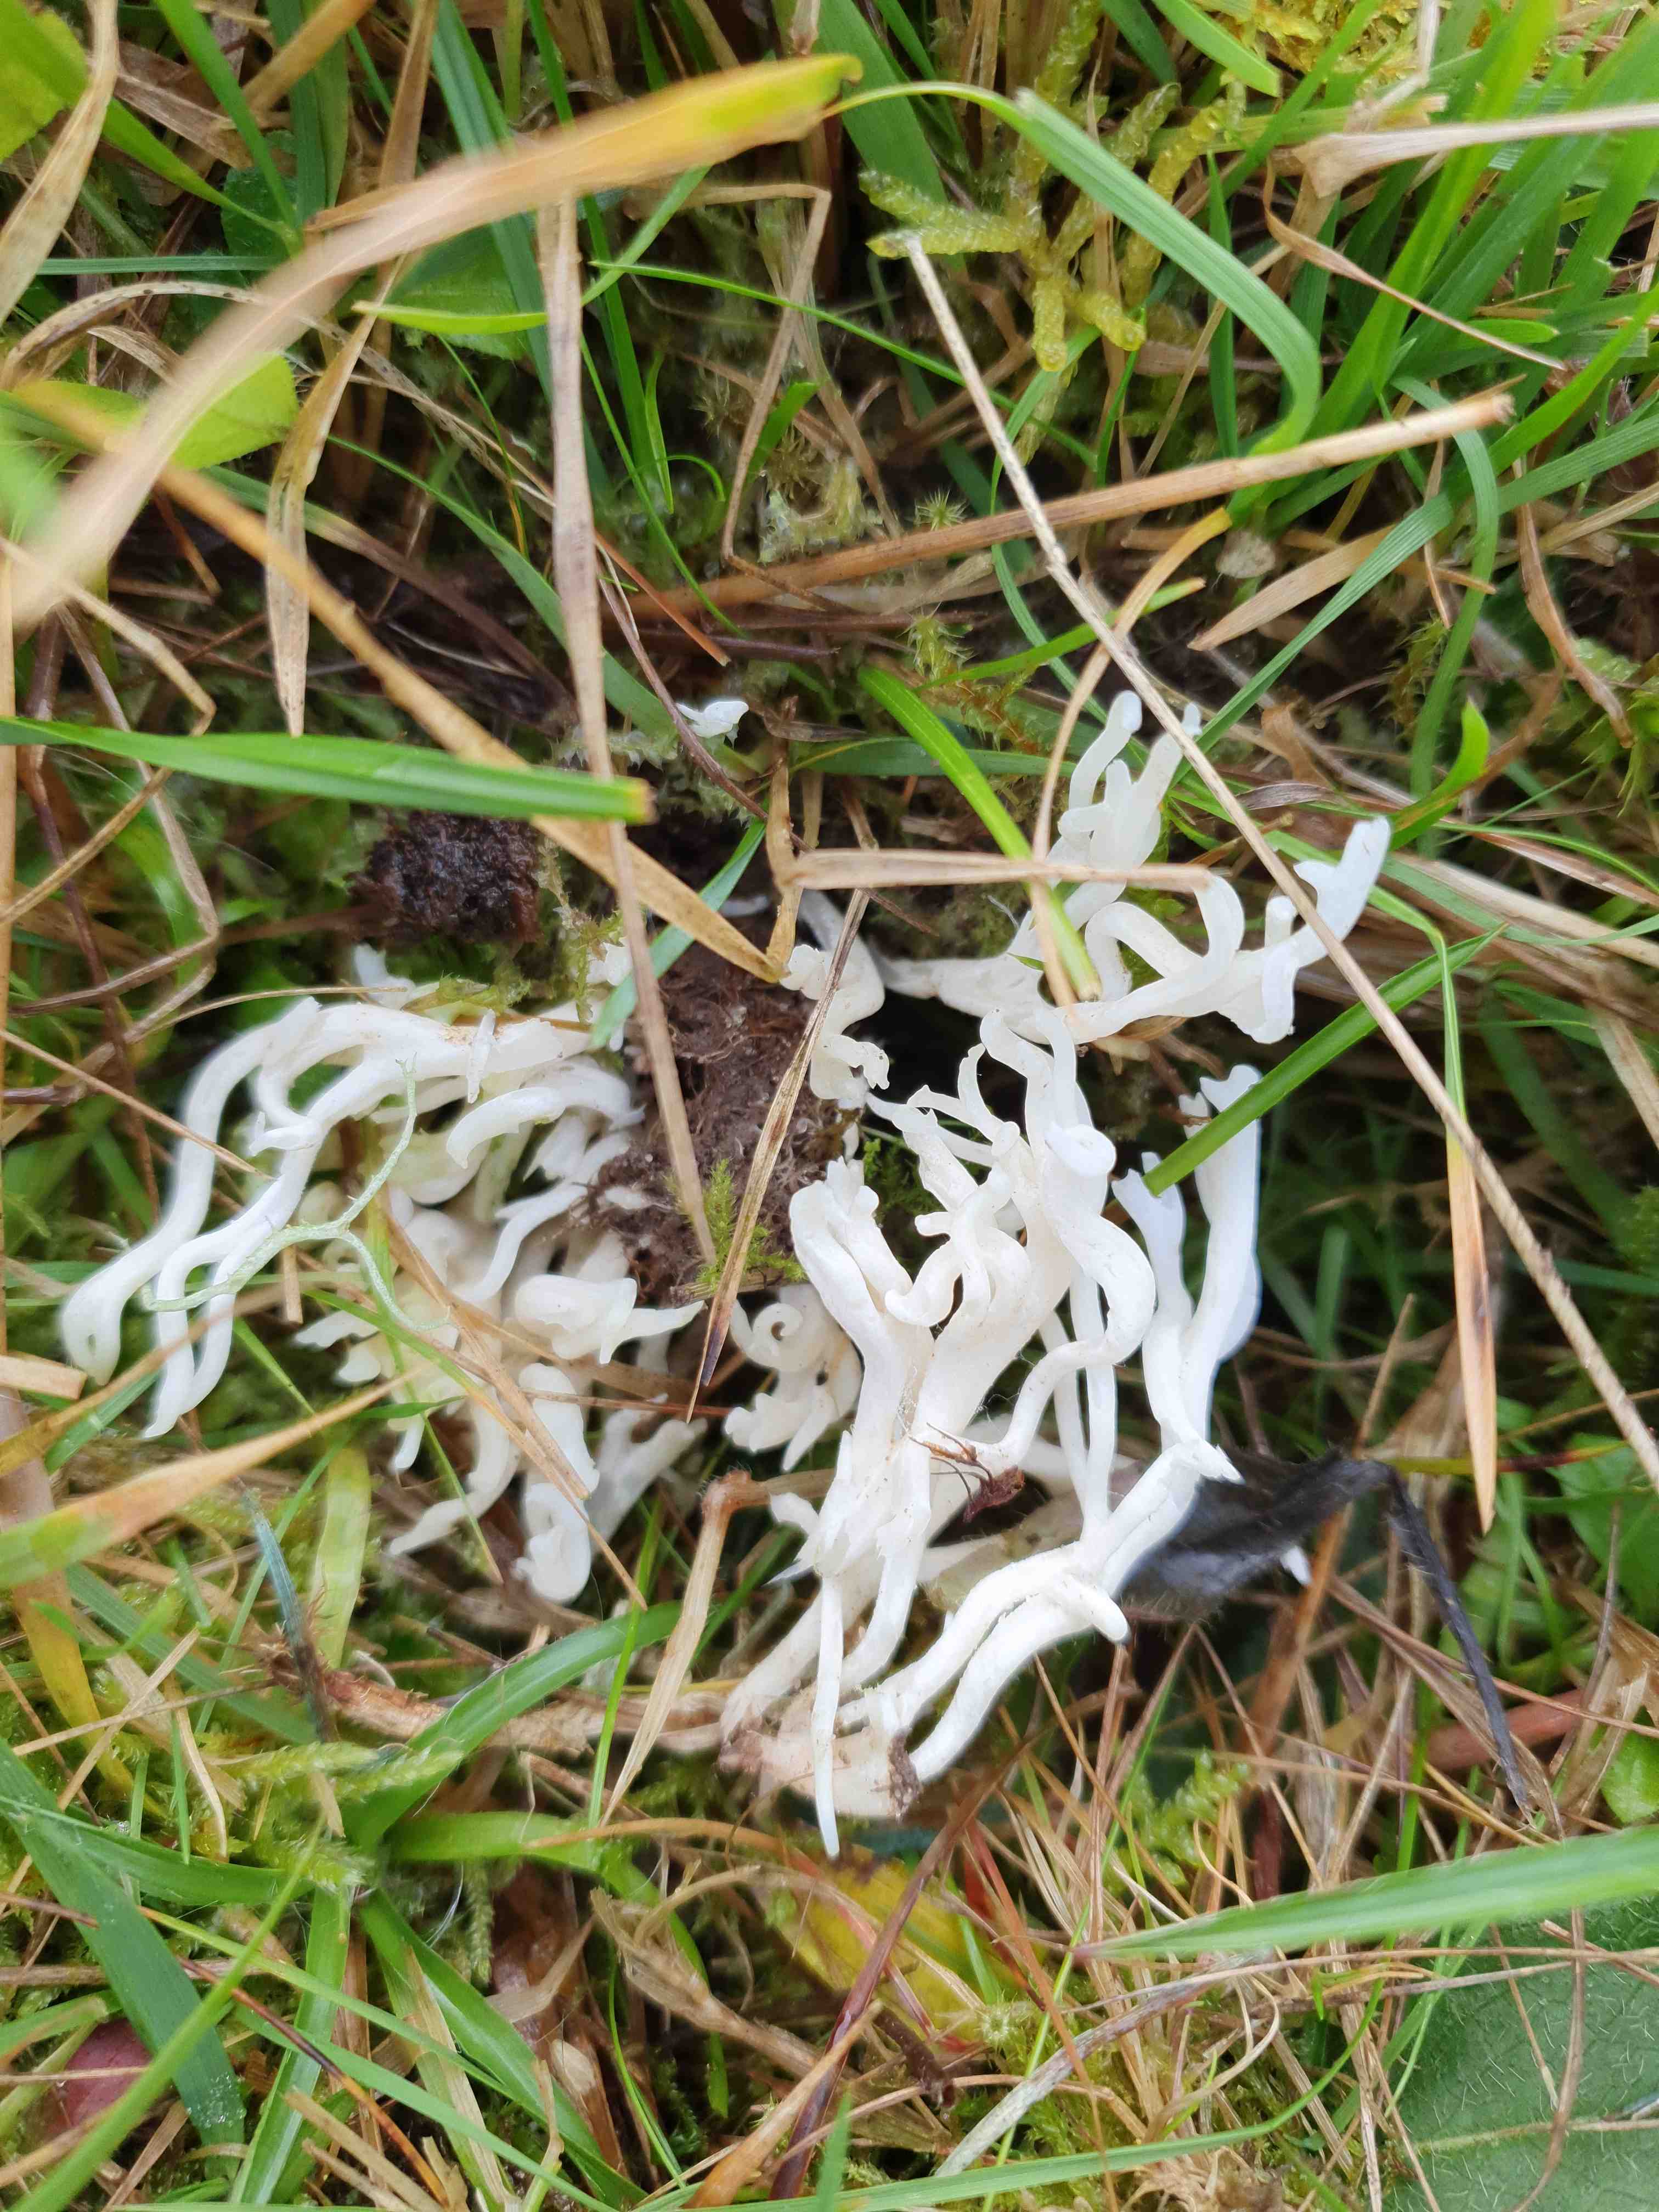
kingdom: Fungi
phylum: Basidiomycota
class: Agaricomycetes
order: Agaricales
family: Clavariaceae
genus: Ramariopsis
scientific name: Ramariopsis kunzei
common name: mangegrenet køllesvamp
